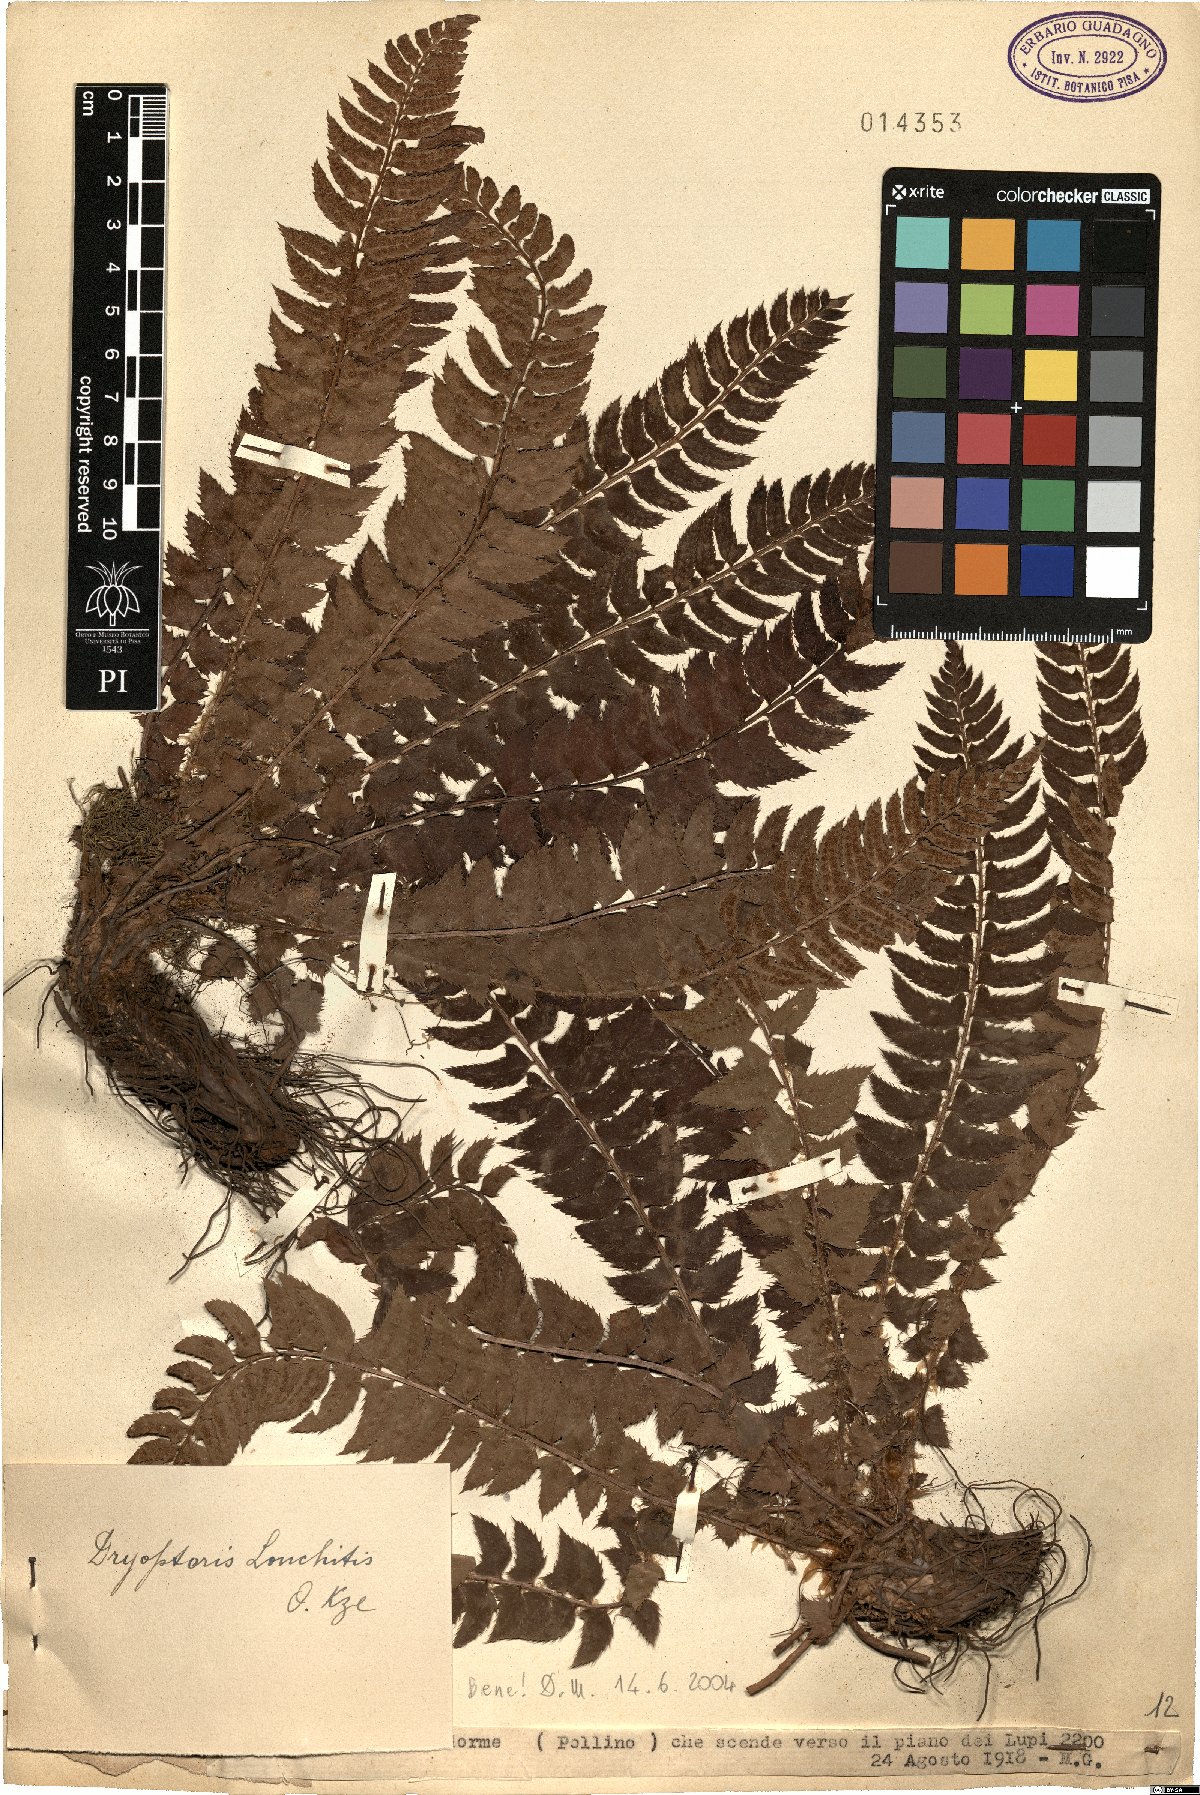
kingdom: Plantae
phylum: Tracheophyta
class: Polypodiopsida
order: Polypodiales
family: Dryopteridaceae
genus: Polystichum
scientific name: Polystichum lonchitis
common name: Holly fern
